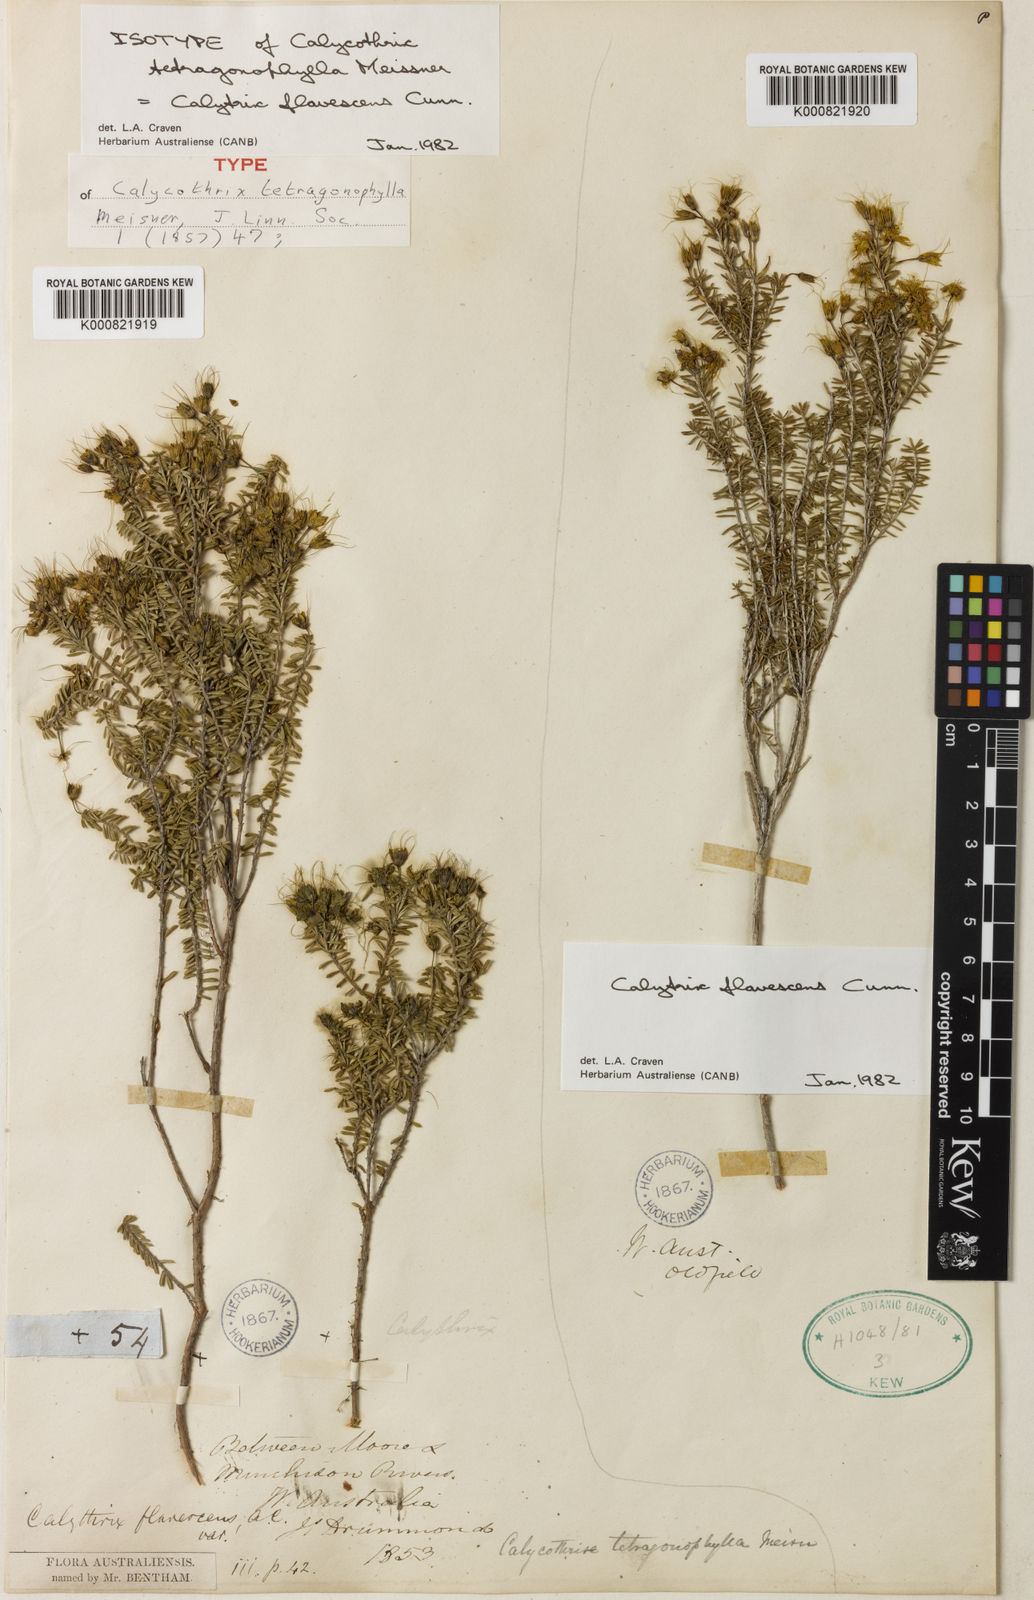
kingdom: Plantae
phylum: Tracheophyta
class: Magnoliopsida
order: Myrtales
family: Myrtaceae
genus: Calytrix
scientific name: Calytrix flavescens
